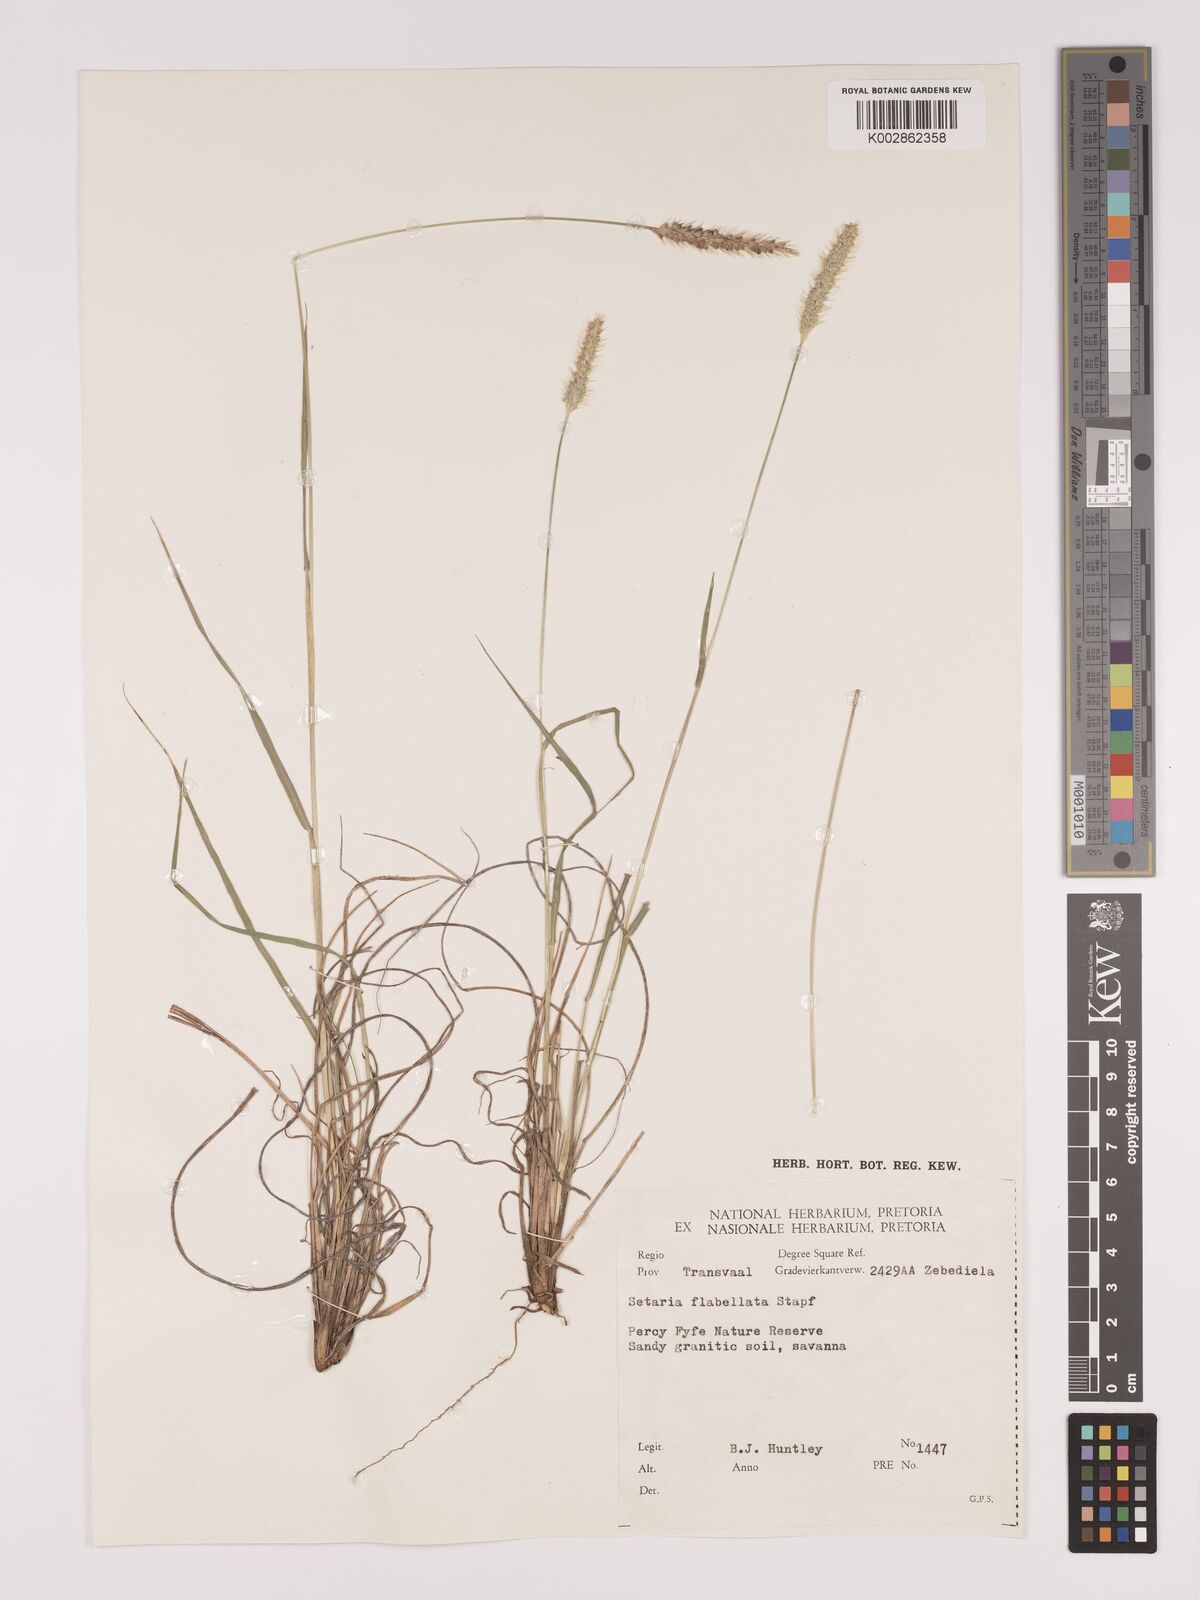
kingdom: Plantae
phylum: Tracheophyta
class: Liliopsida
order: Poales
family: Poaceae
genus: Setaria
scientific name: Setaria sphacelata
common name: African bristlegrass
